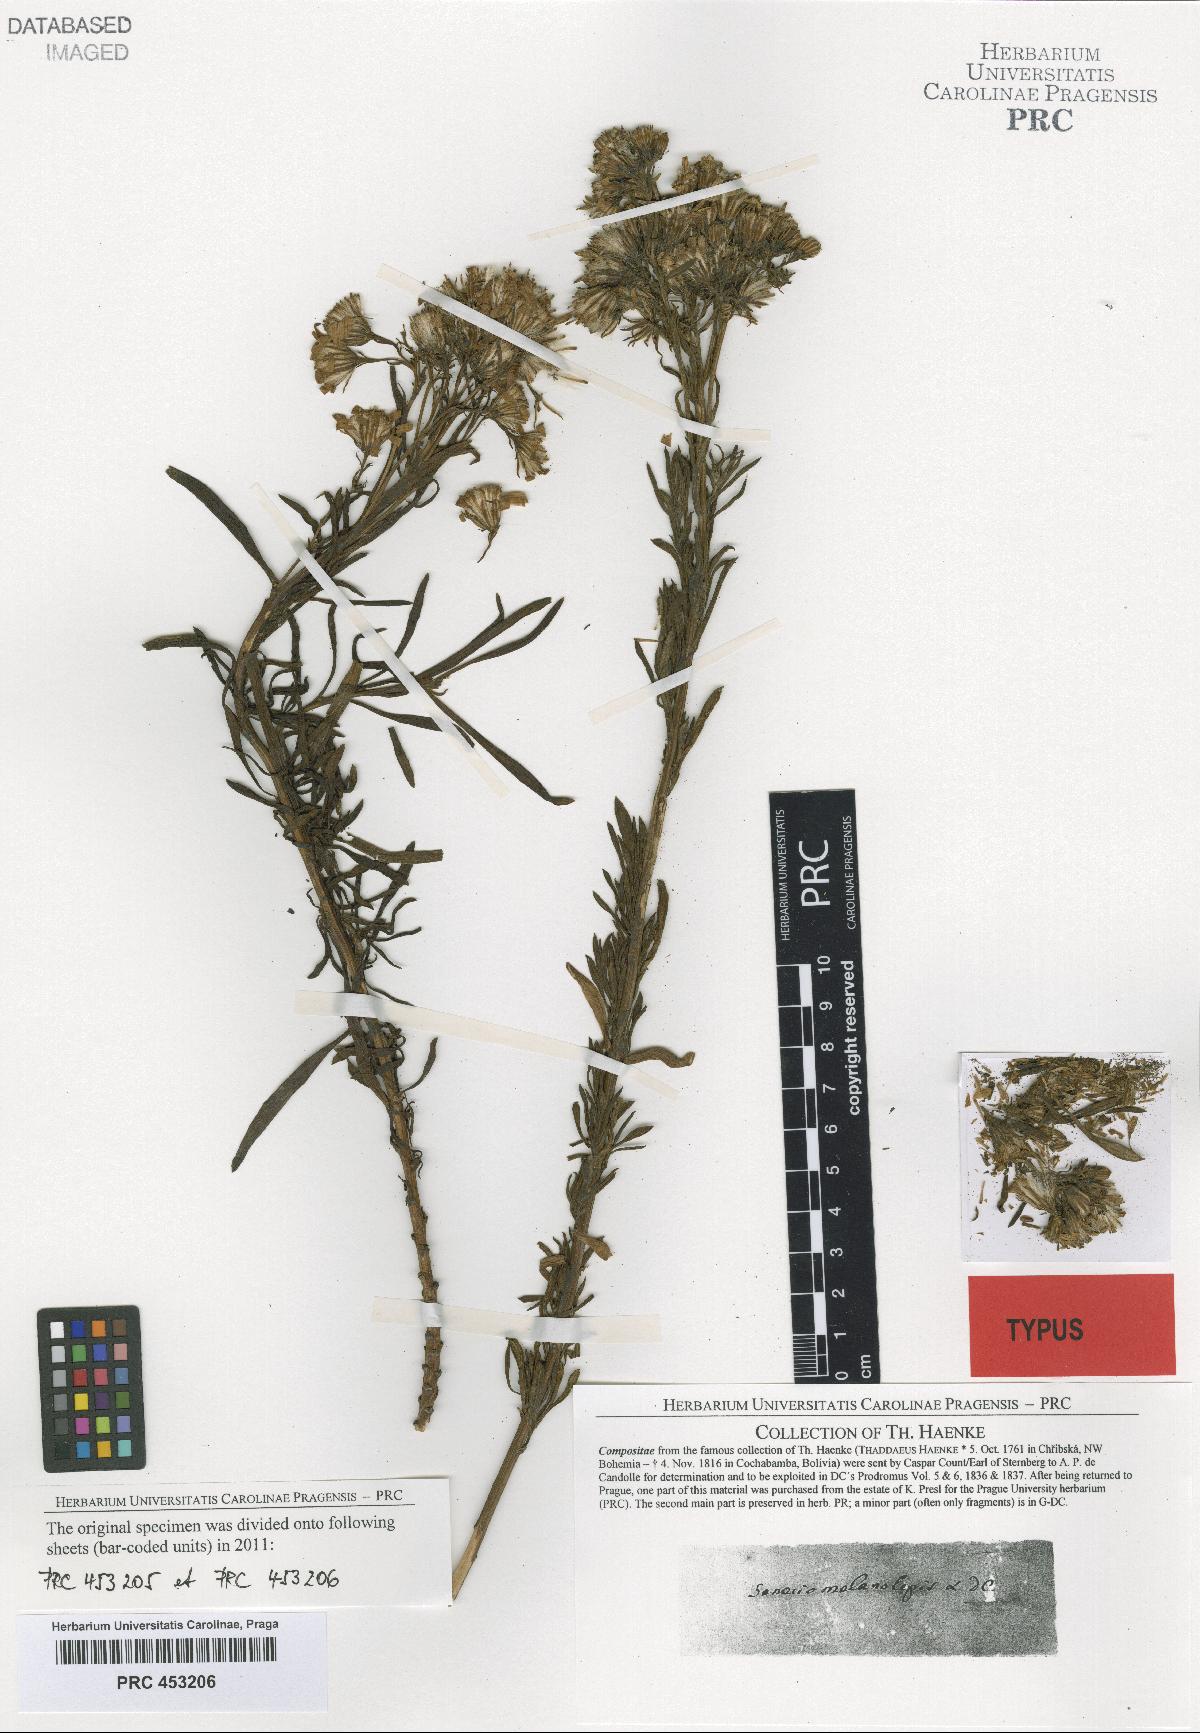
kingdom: Plantae
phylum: Tracheophyta
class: Magnoliopsida
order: Asterales
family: Asteraceae
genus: Senecio
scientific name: Senecio melanolepis
